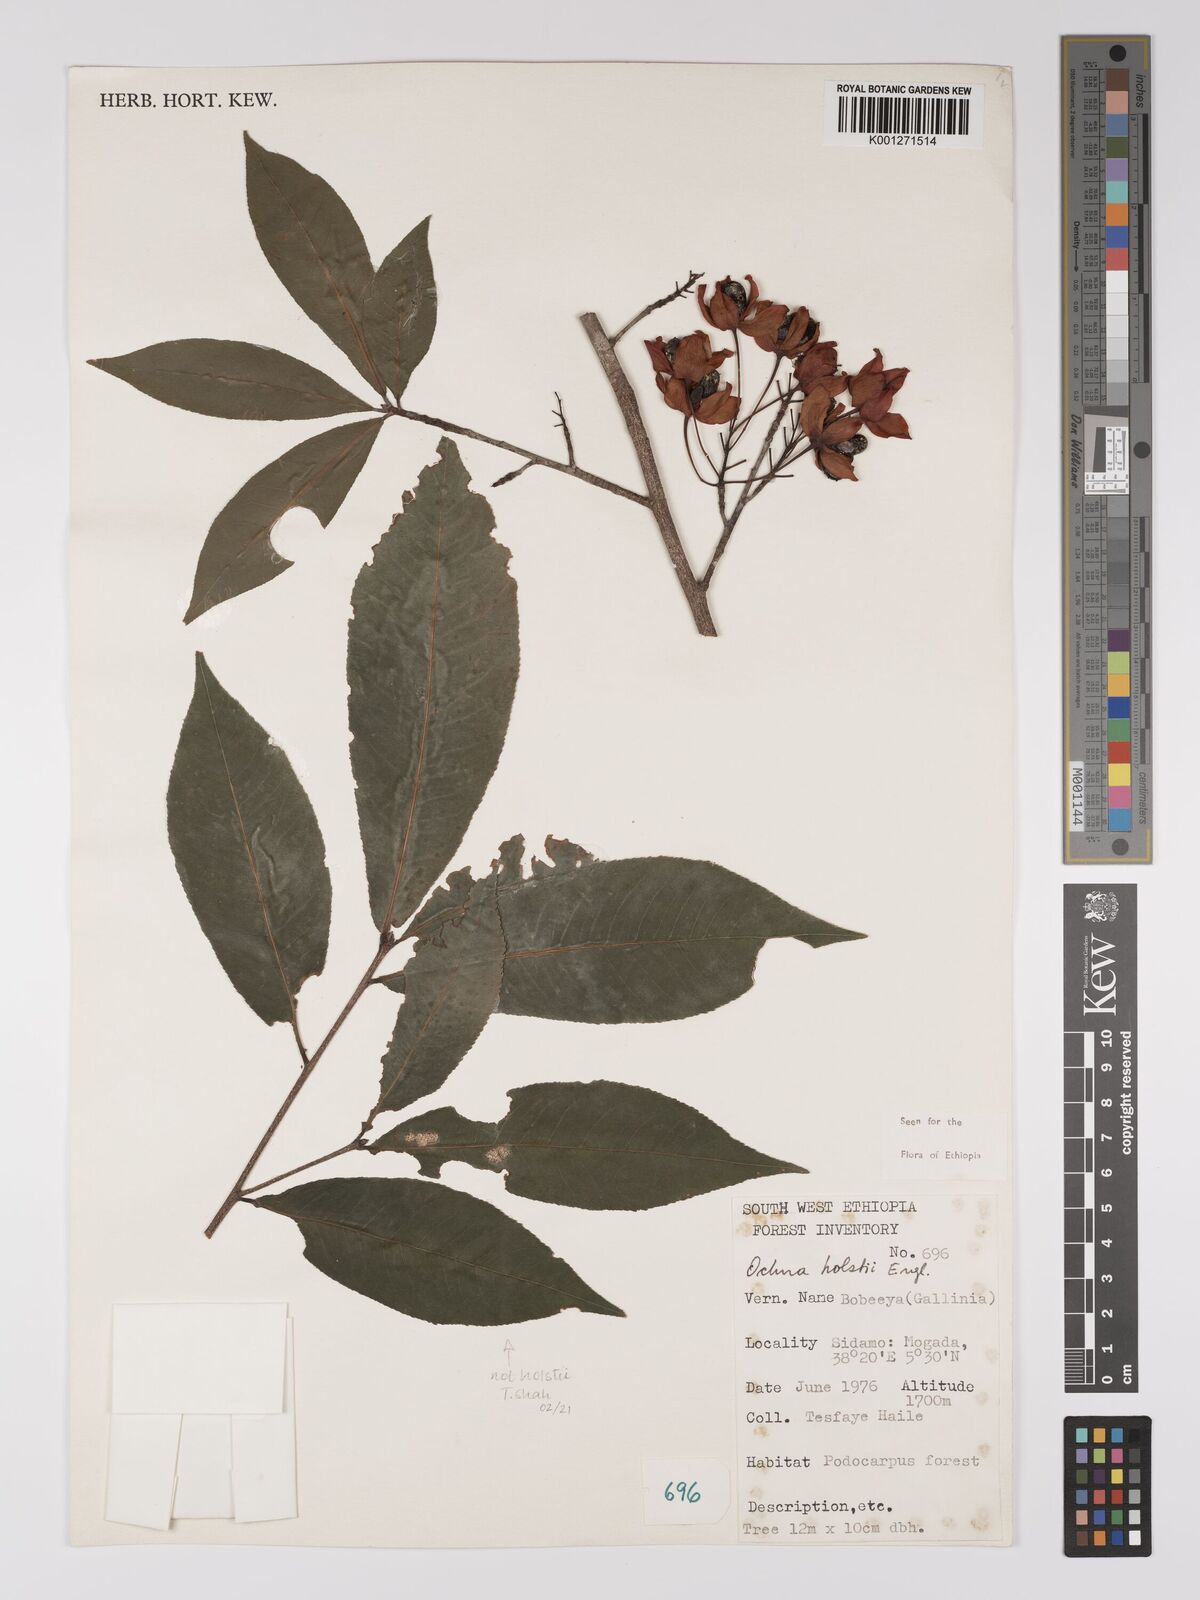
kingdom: Plantae
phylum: Tracheophyta
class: Magnoliopsida
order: Malpighiales
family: Ochnaceae
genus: Ochna
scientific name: Ochna holstii
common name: Red ironwood
